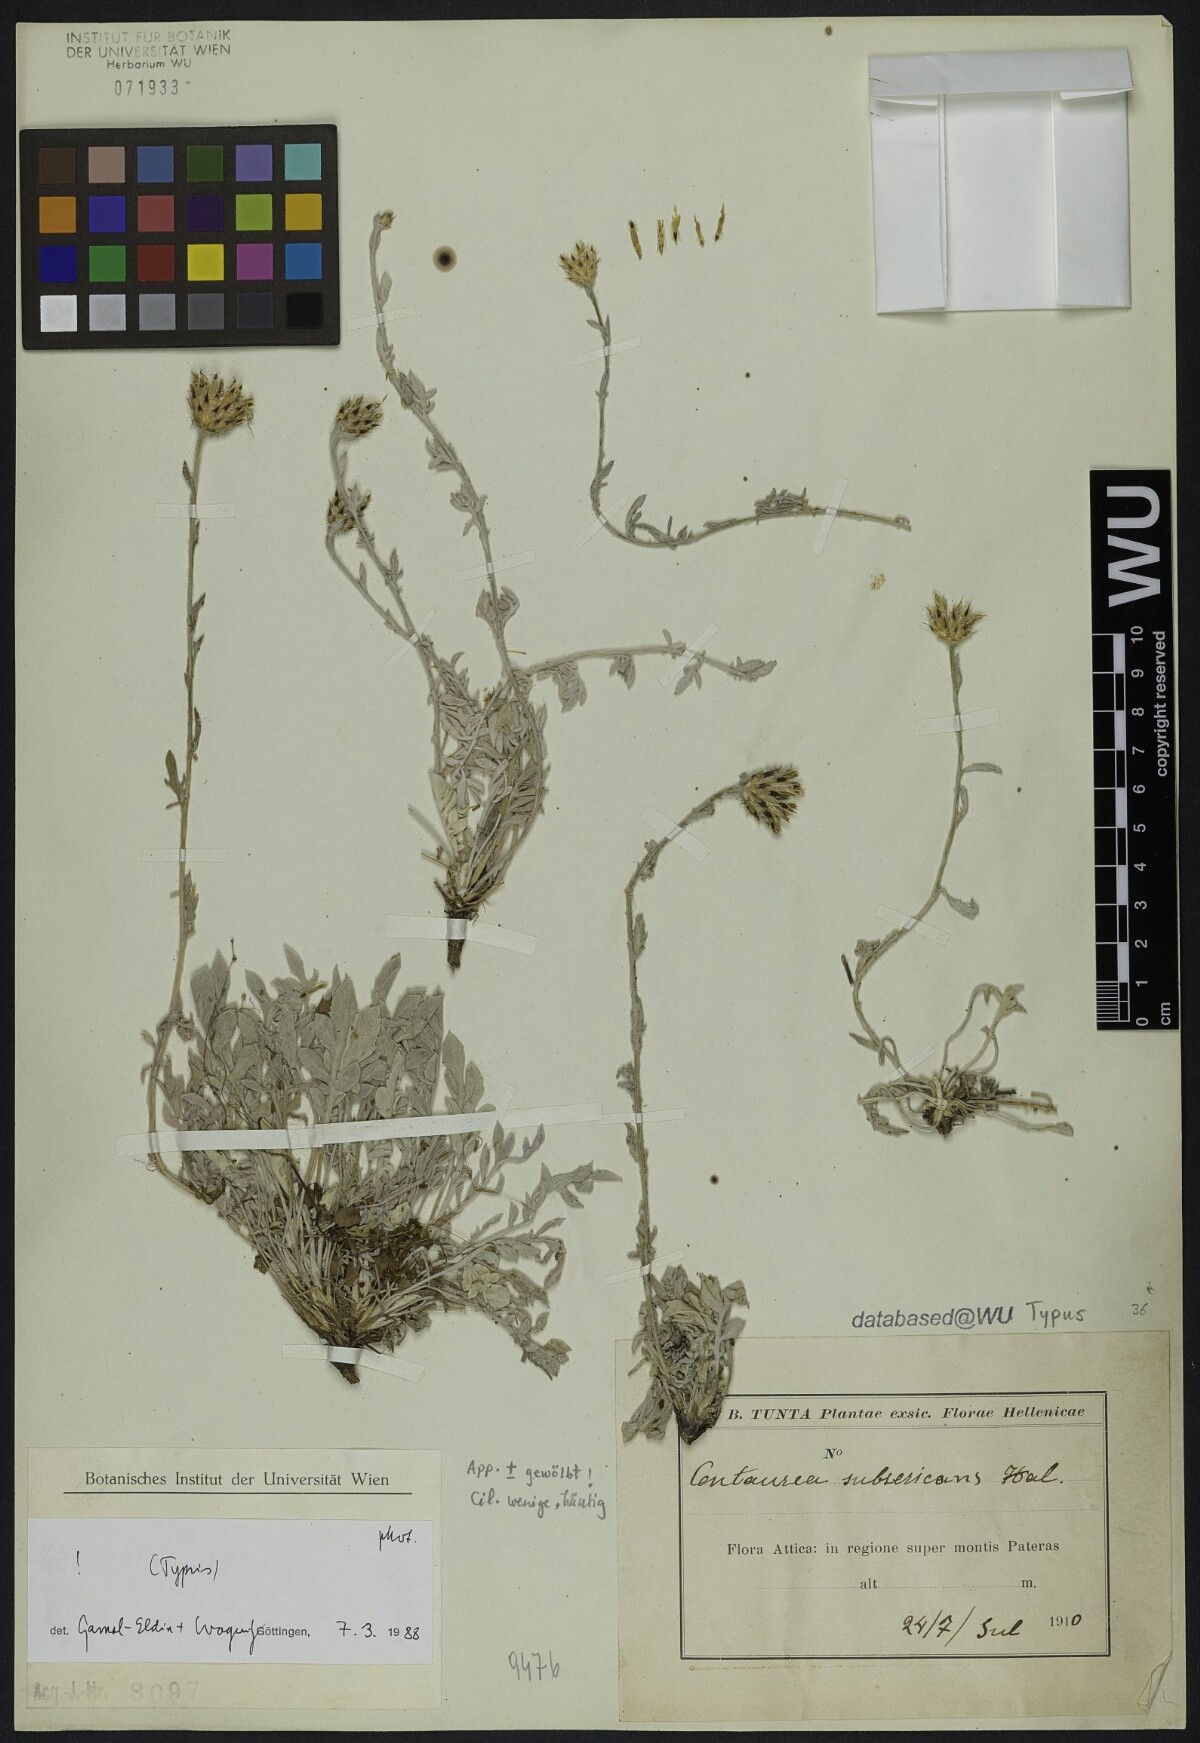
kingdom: Plantae
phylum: Tracheophyta
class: Magnoliopsida
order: Asterales
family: Asteraceae
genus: Centaurea
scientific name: Centaurea subsericans
